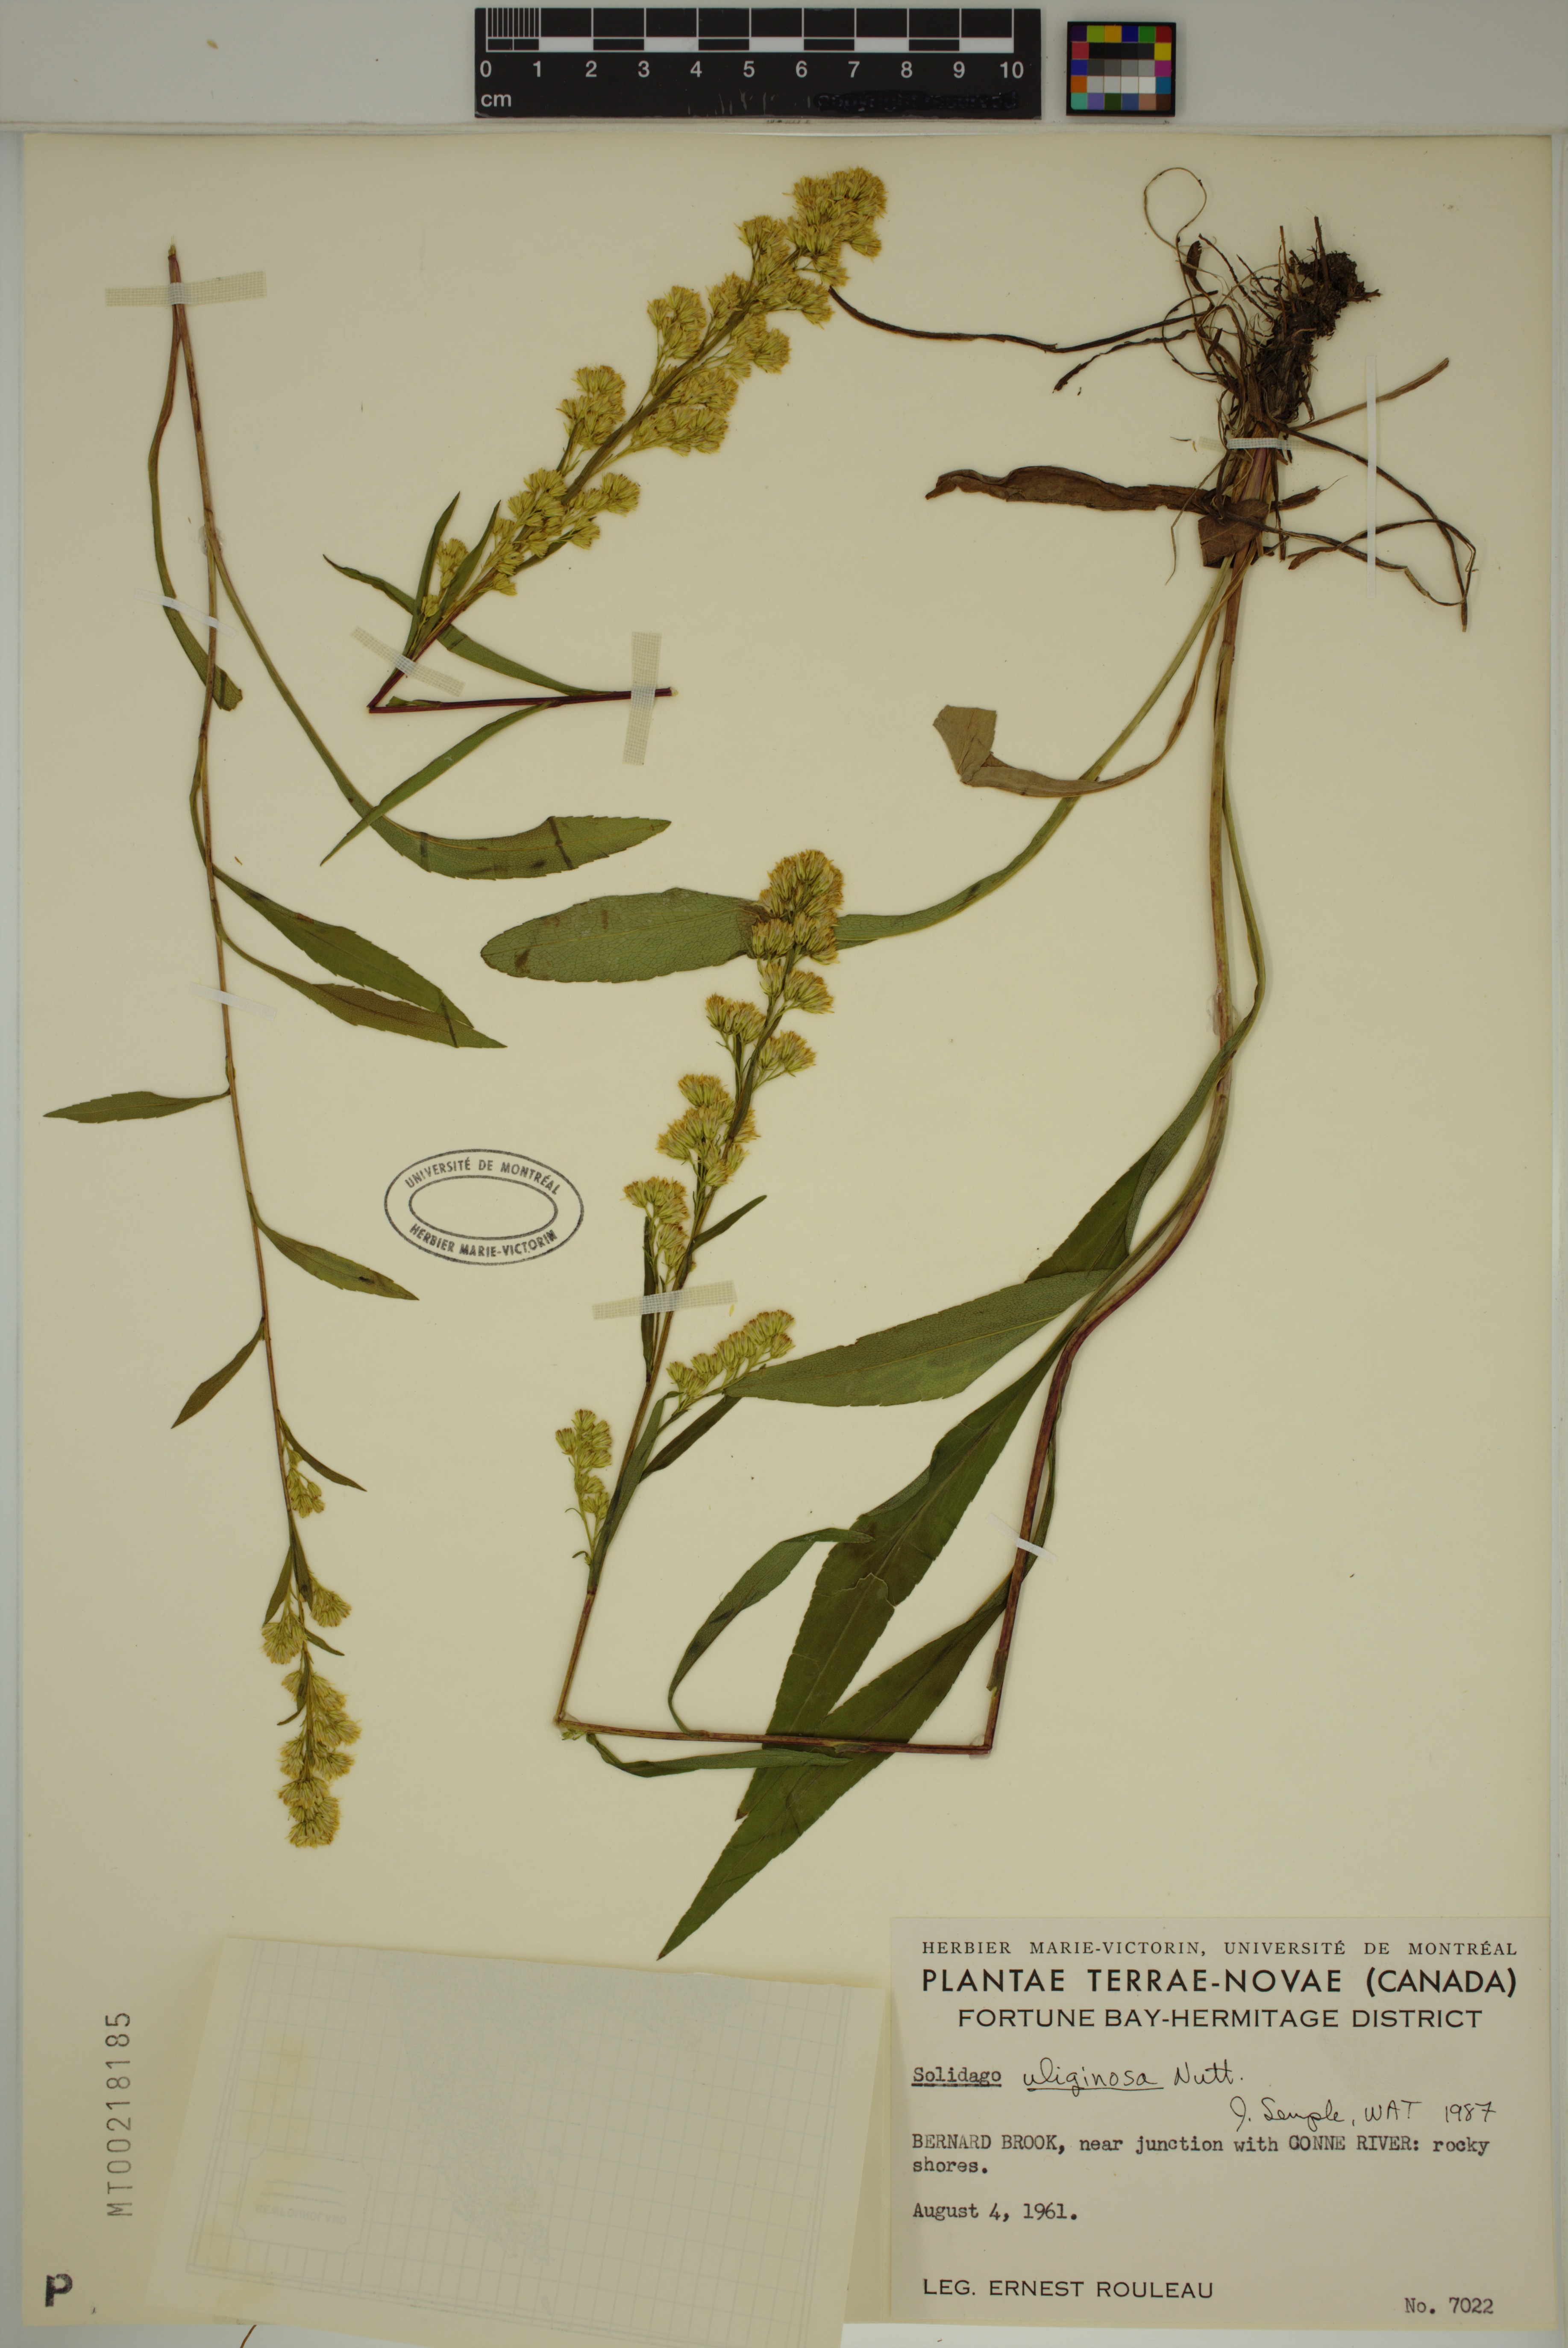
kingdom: Plantae
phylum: Tracheophyta
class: Magnoliopsida
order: Asterales
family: Asteraceae
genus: Solidago
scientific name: Solidago uliginosa
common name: Bog goldenrod
